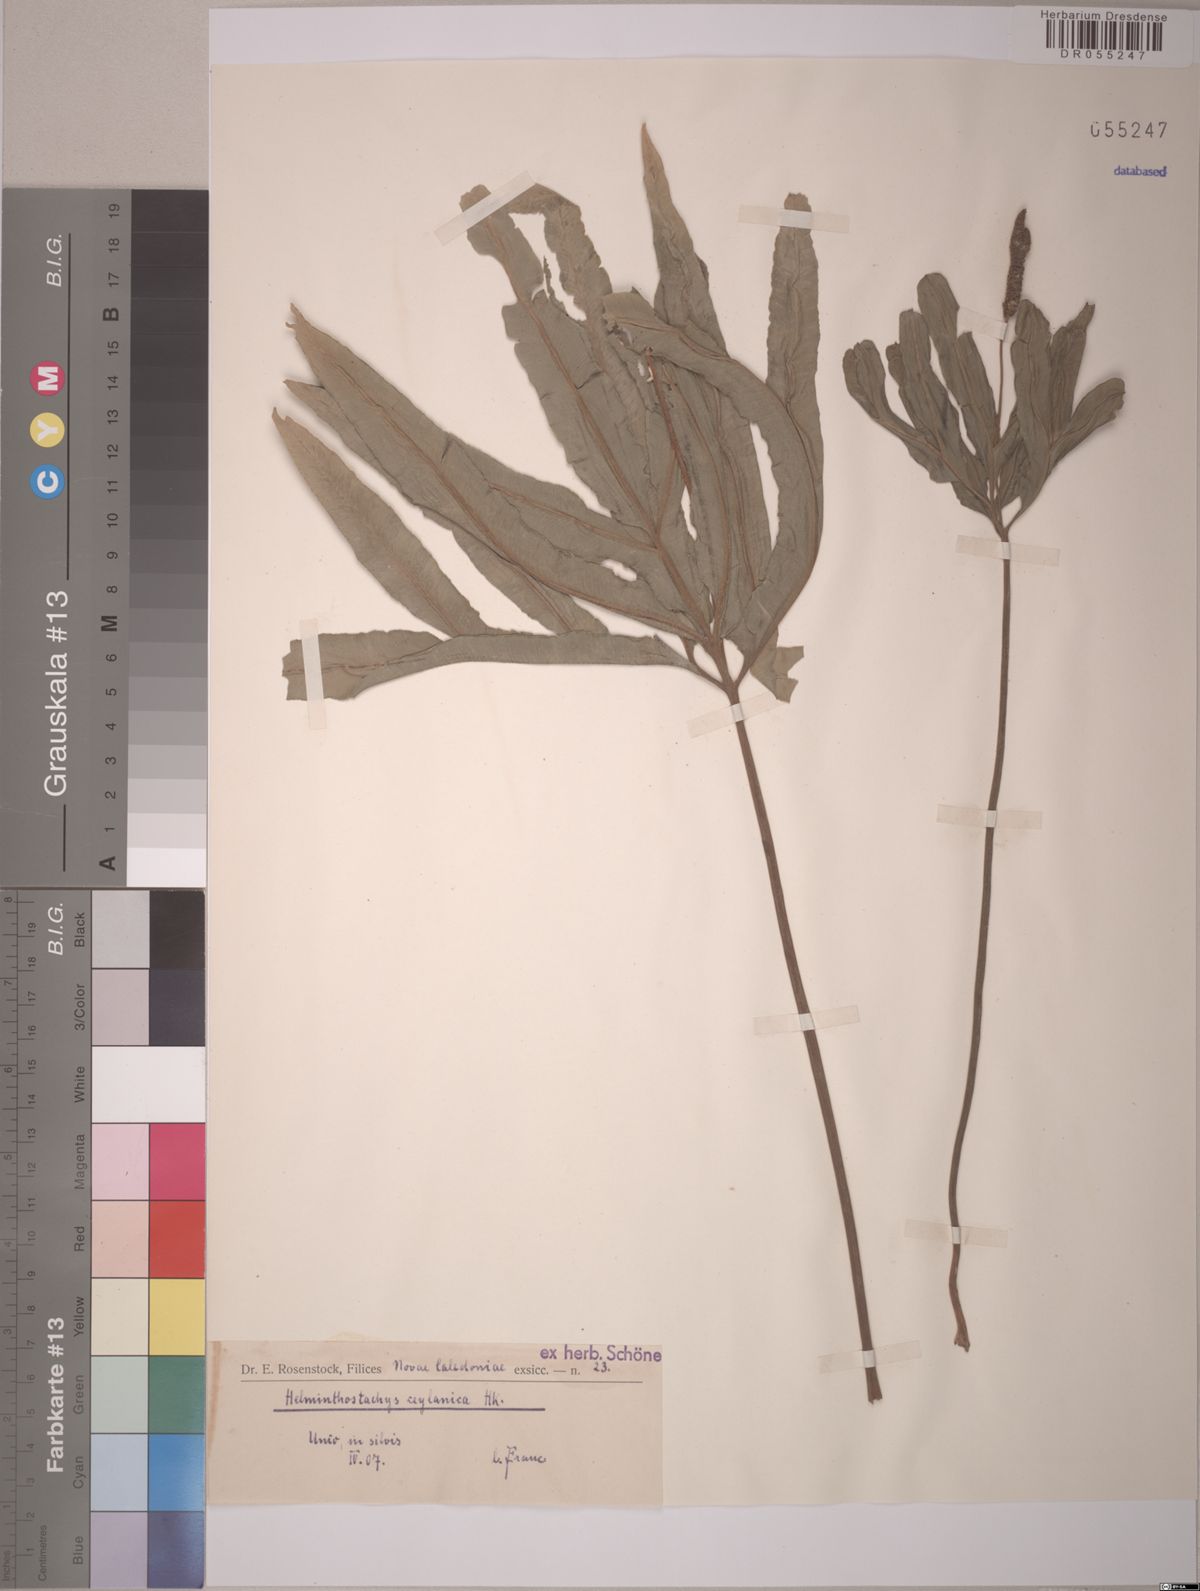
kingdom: Plantae
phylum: Tracheophyta
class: Polypodiopsida
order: Ophioglossales
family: Ophioglossaceae
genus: Helminthostachys
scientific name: Helminthostachys zeylanica
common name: Flowering fern
